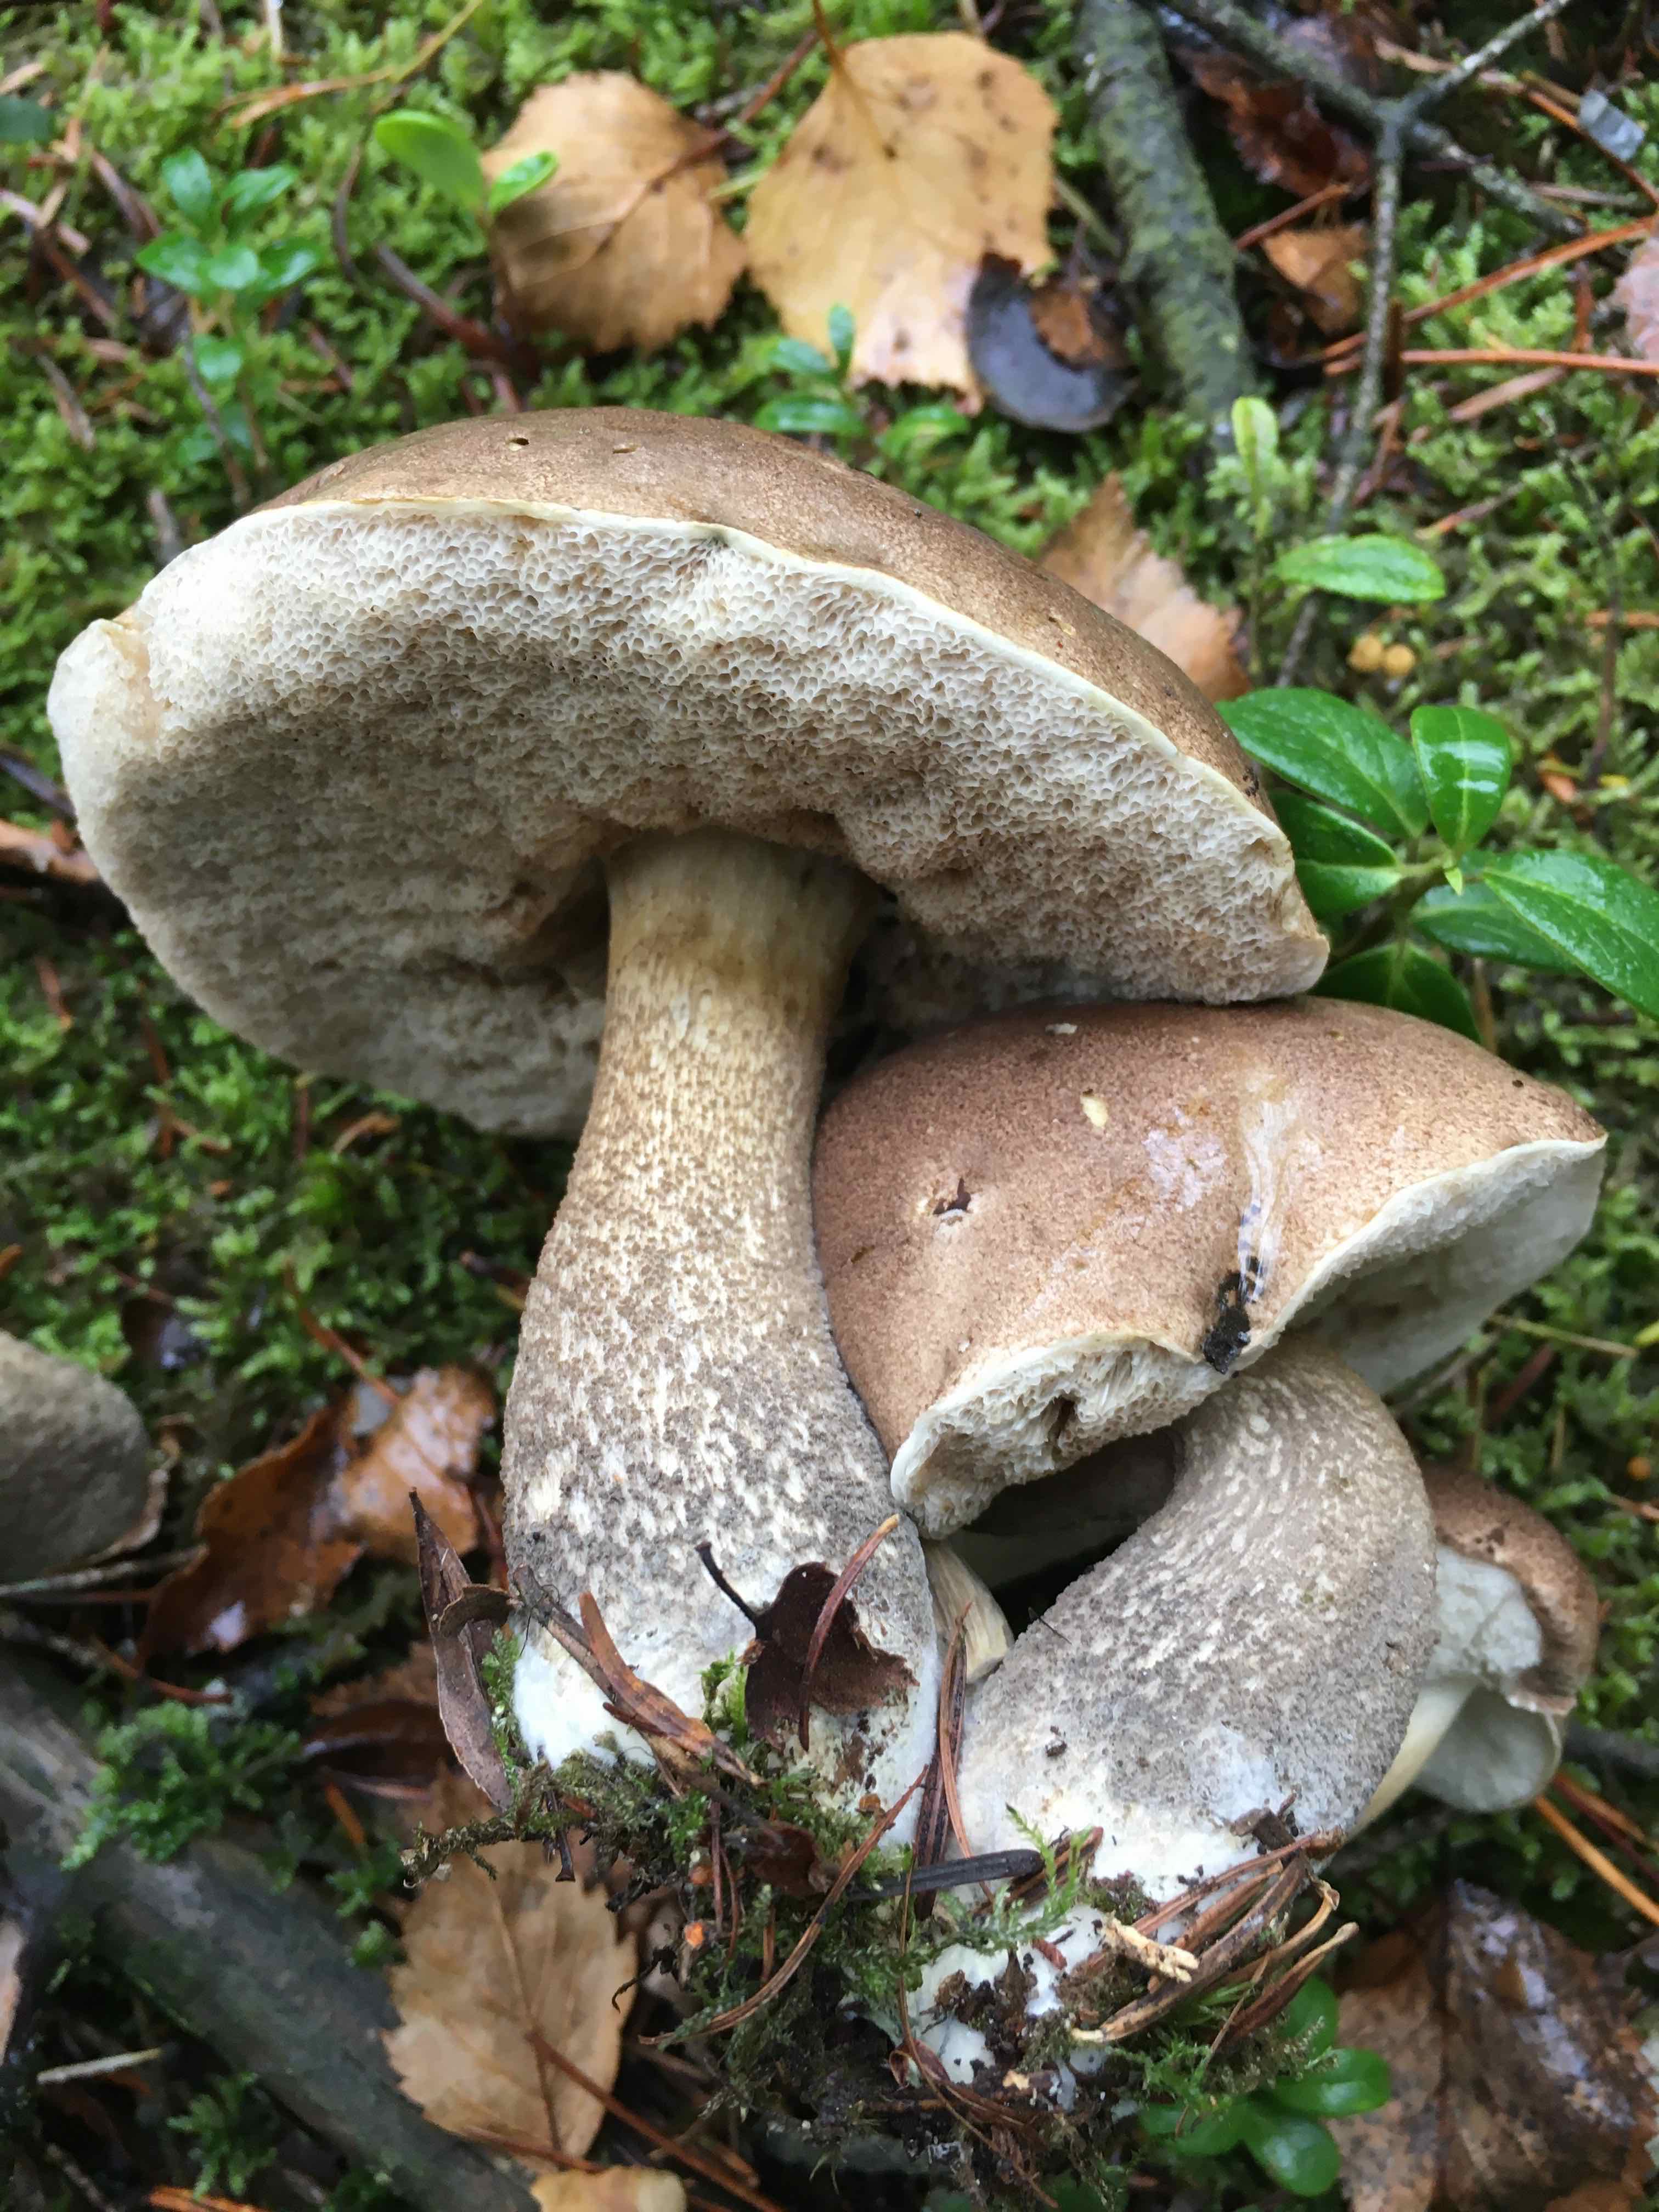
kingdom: Fungi
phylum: Basidiomycota
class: Agaricomycetes
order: Boletales
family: Boletaceae
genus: Leccinum
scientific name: Leccinum scabrum
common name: brun skælrørhat
